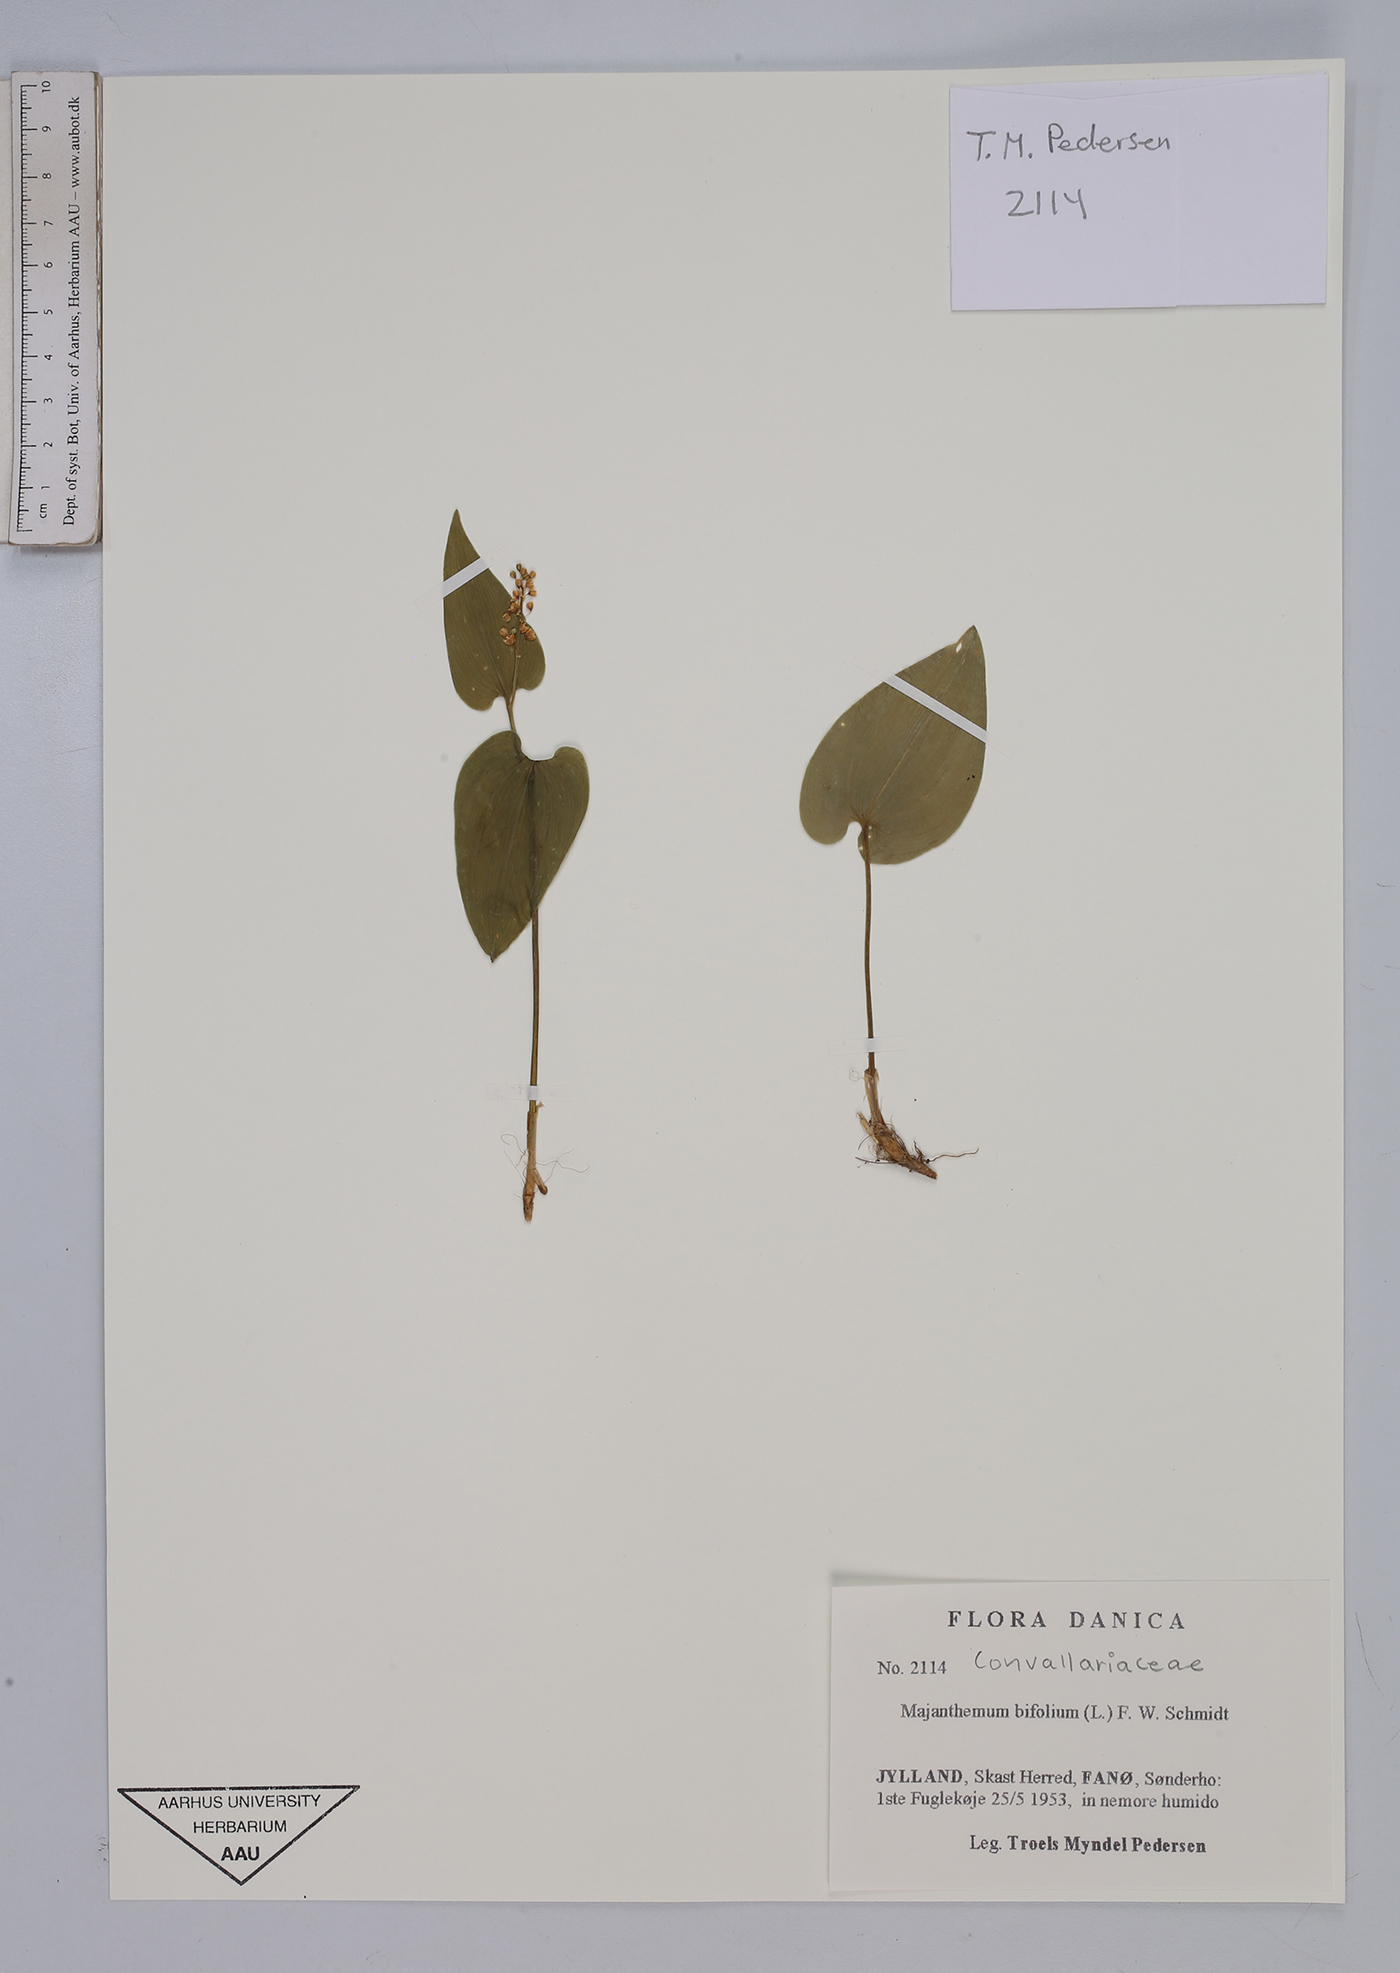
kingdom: Plantae
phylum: Tracheophyta
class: Liliopsida
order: Asparagales
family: Asparagaceae
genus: Maianthemum
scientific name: Maianthemum bifolium
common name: May lily
